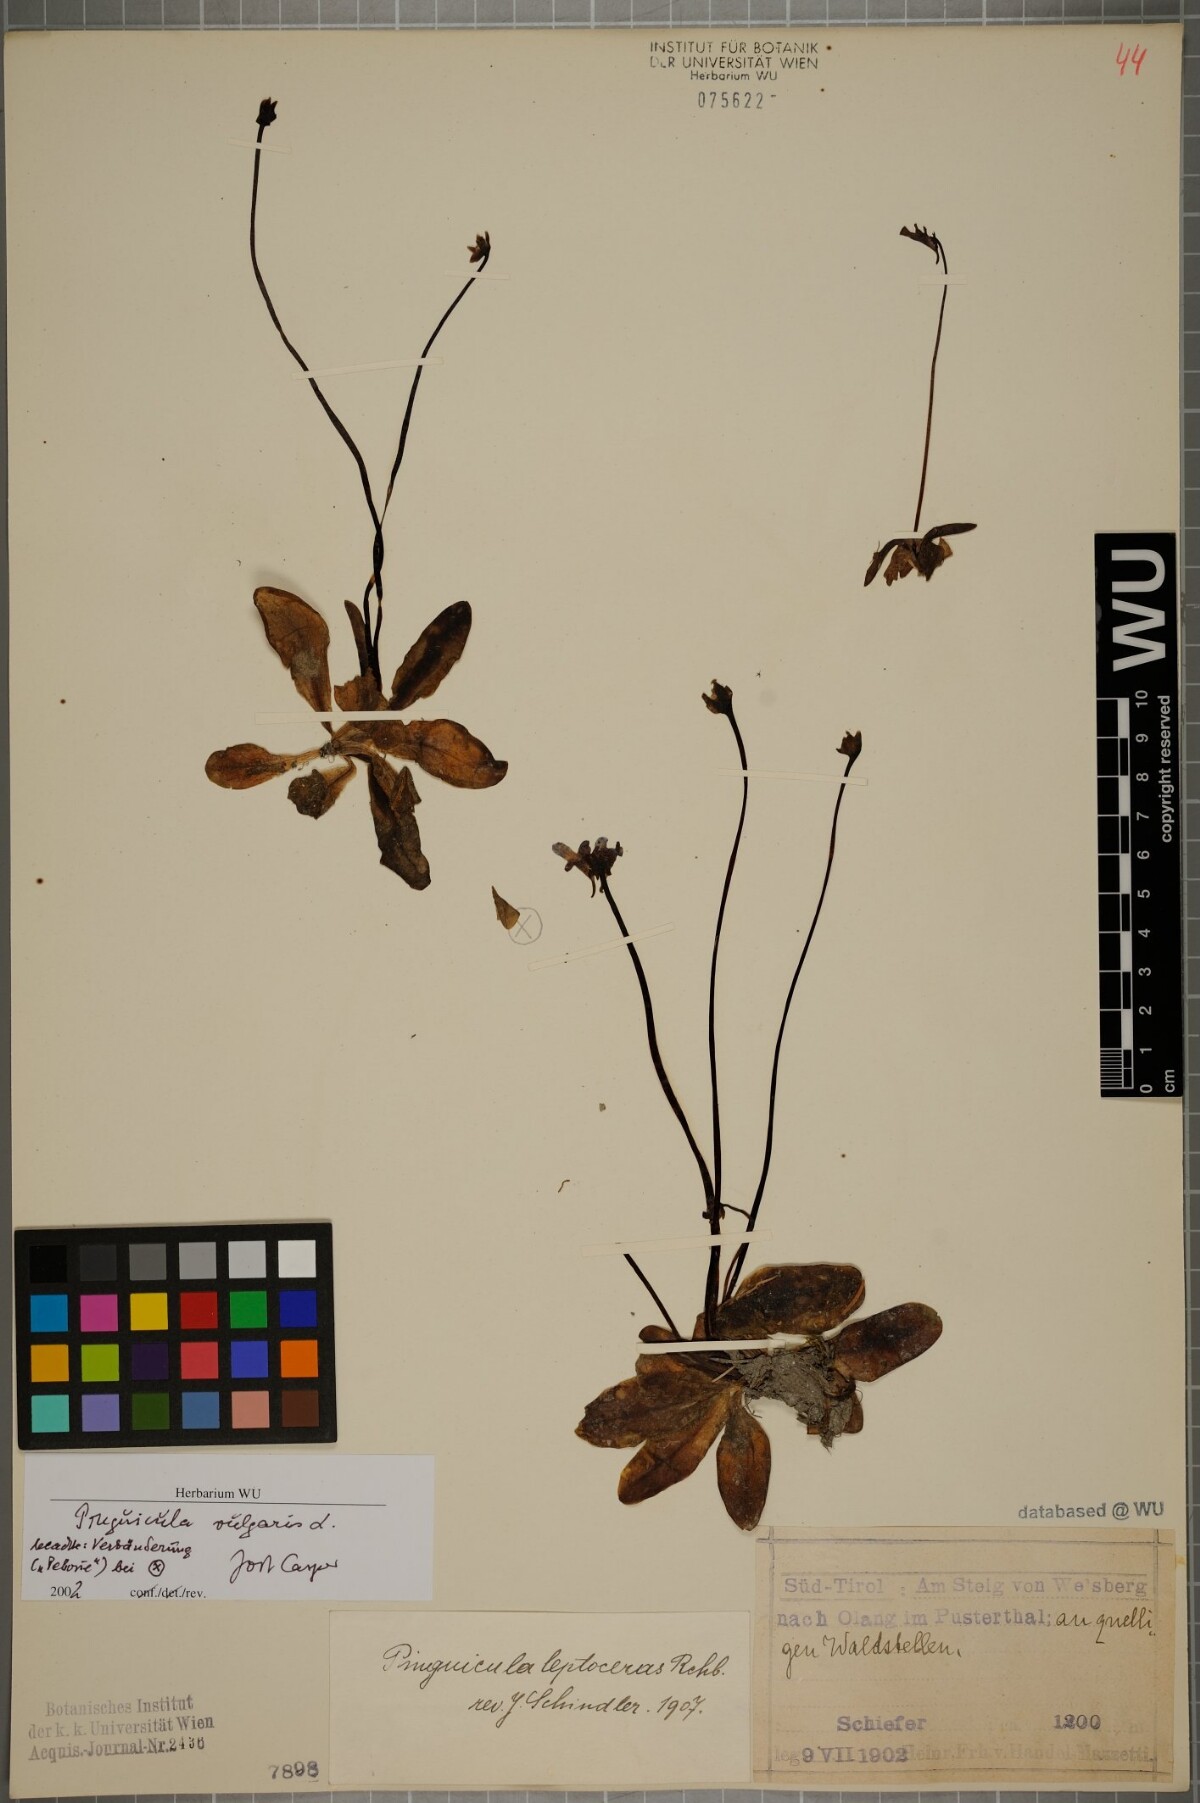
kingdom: Plantae
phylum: Tracheophyta
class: Magnoliopsida
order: Lamiales
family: Lentibulariaceae
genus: Pinguicula
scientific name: Pinguicula vulgaris
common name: Common butterwort
